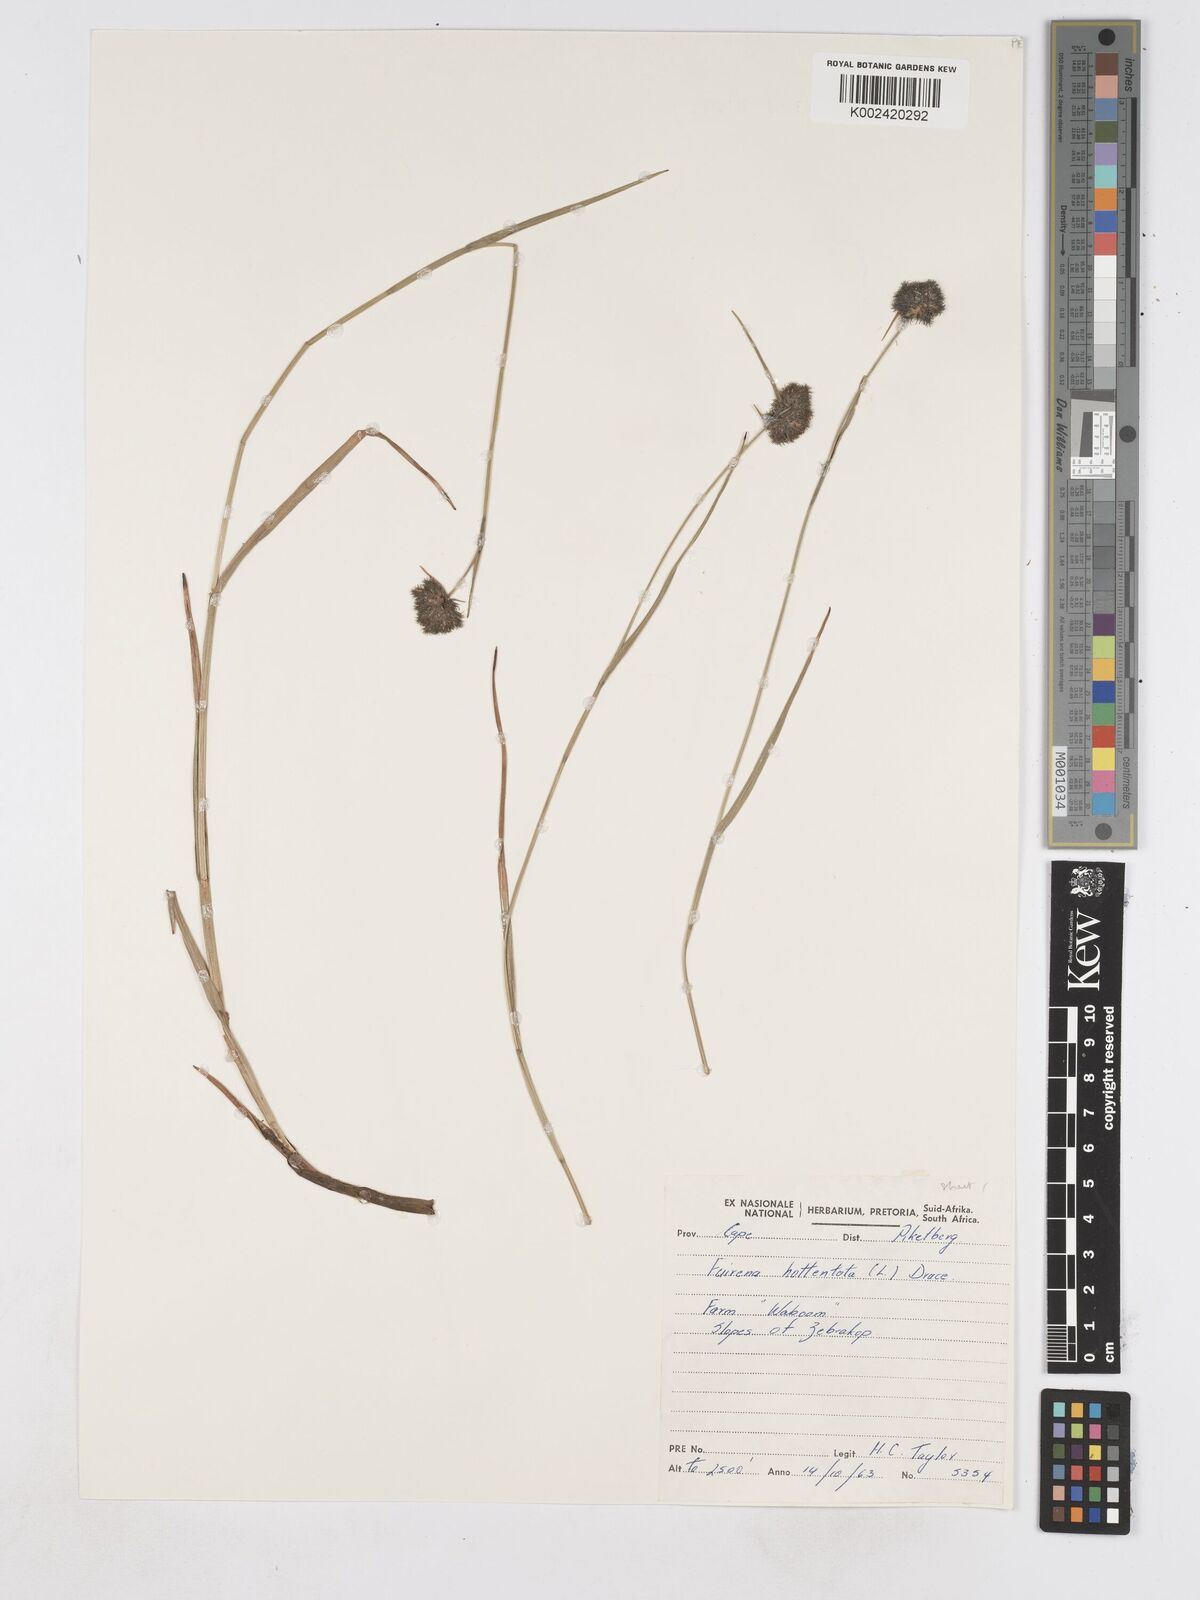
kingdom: Plantae
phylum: Tracheophyta
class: Liliopsida
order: Poales
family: Cyperaceae
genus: Fuirena
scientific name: Fuirena hirsuta
